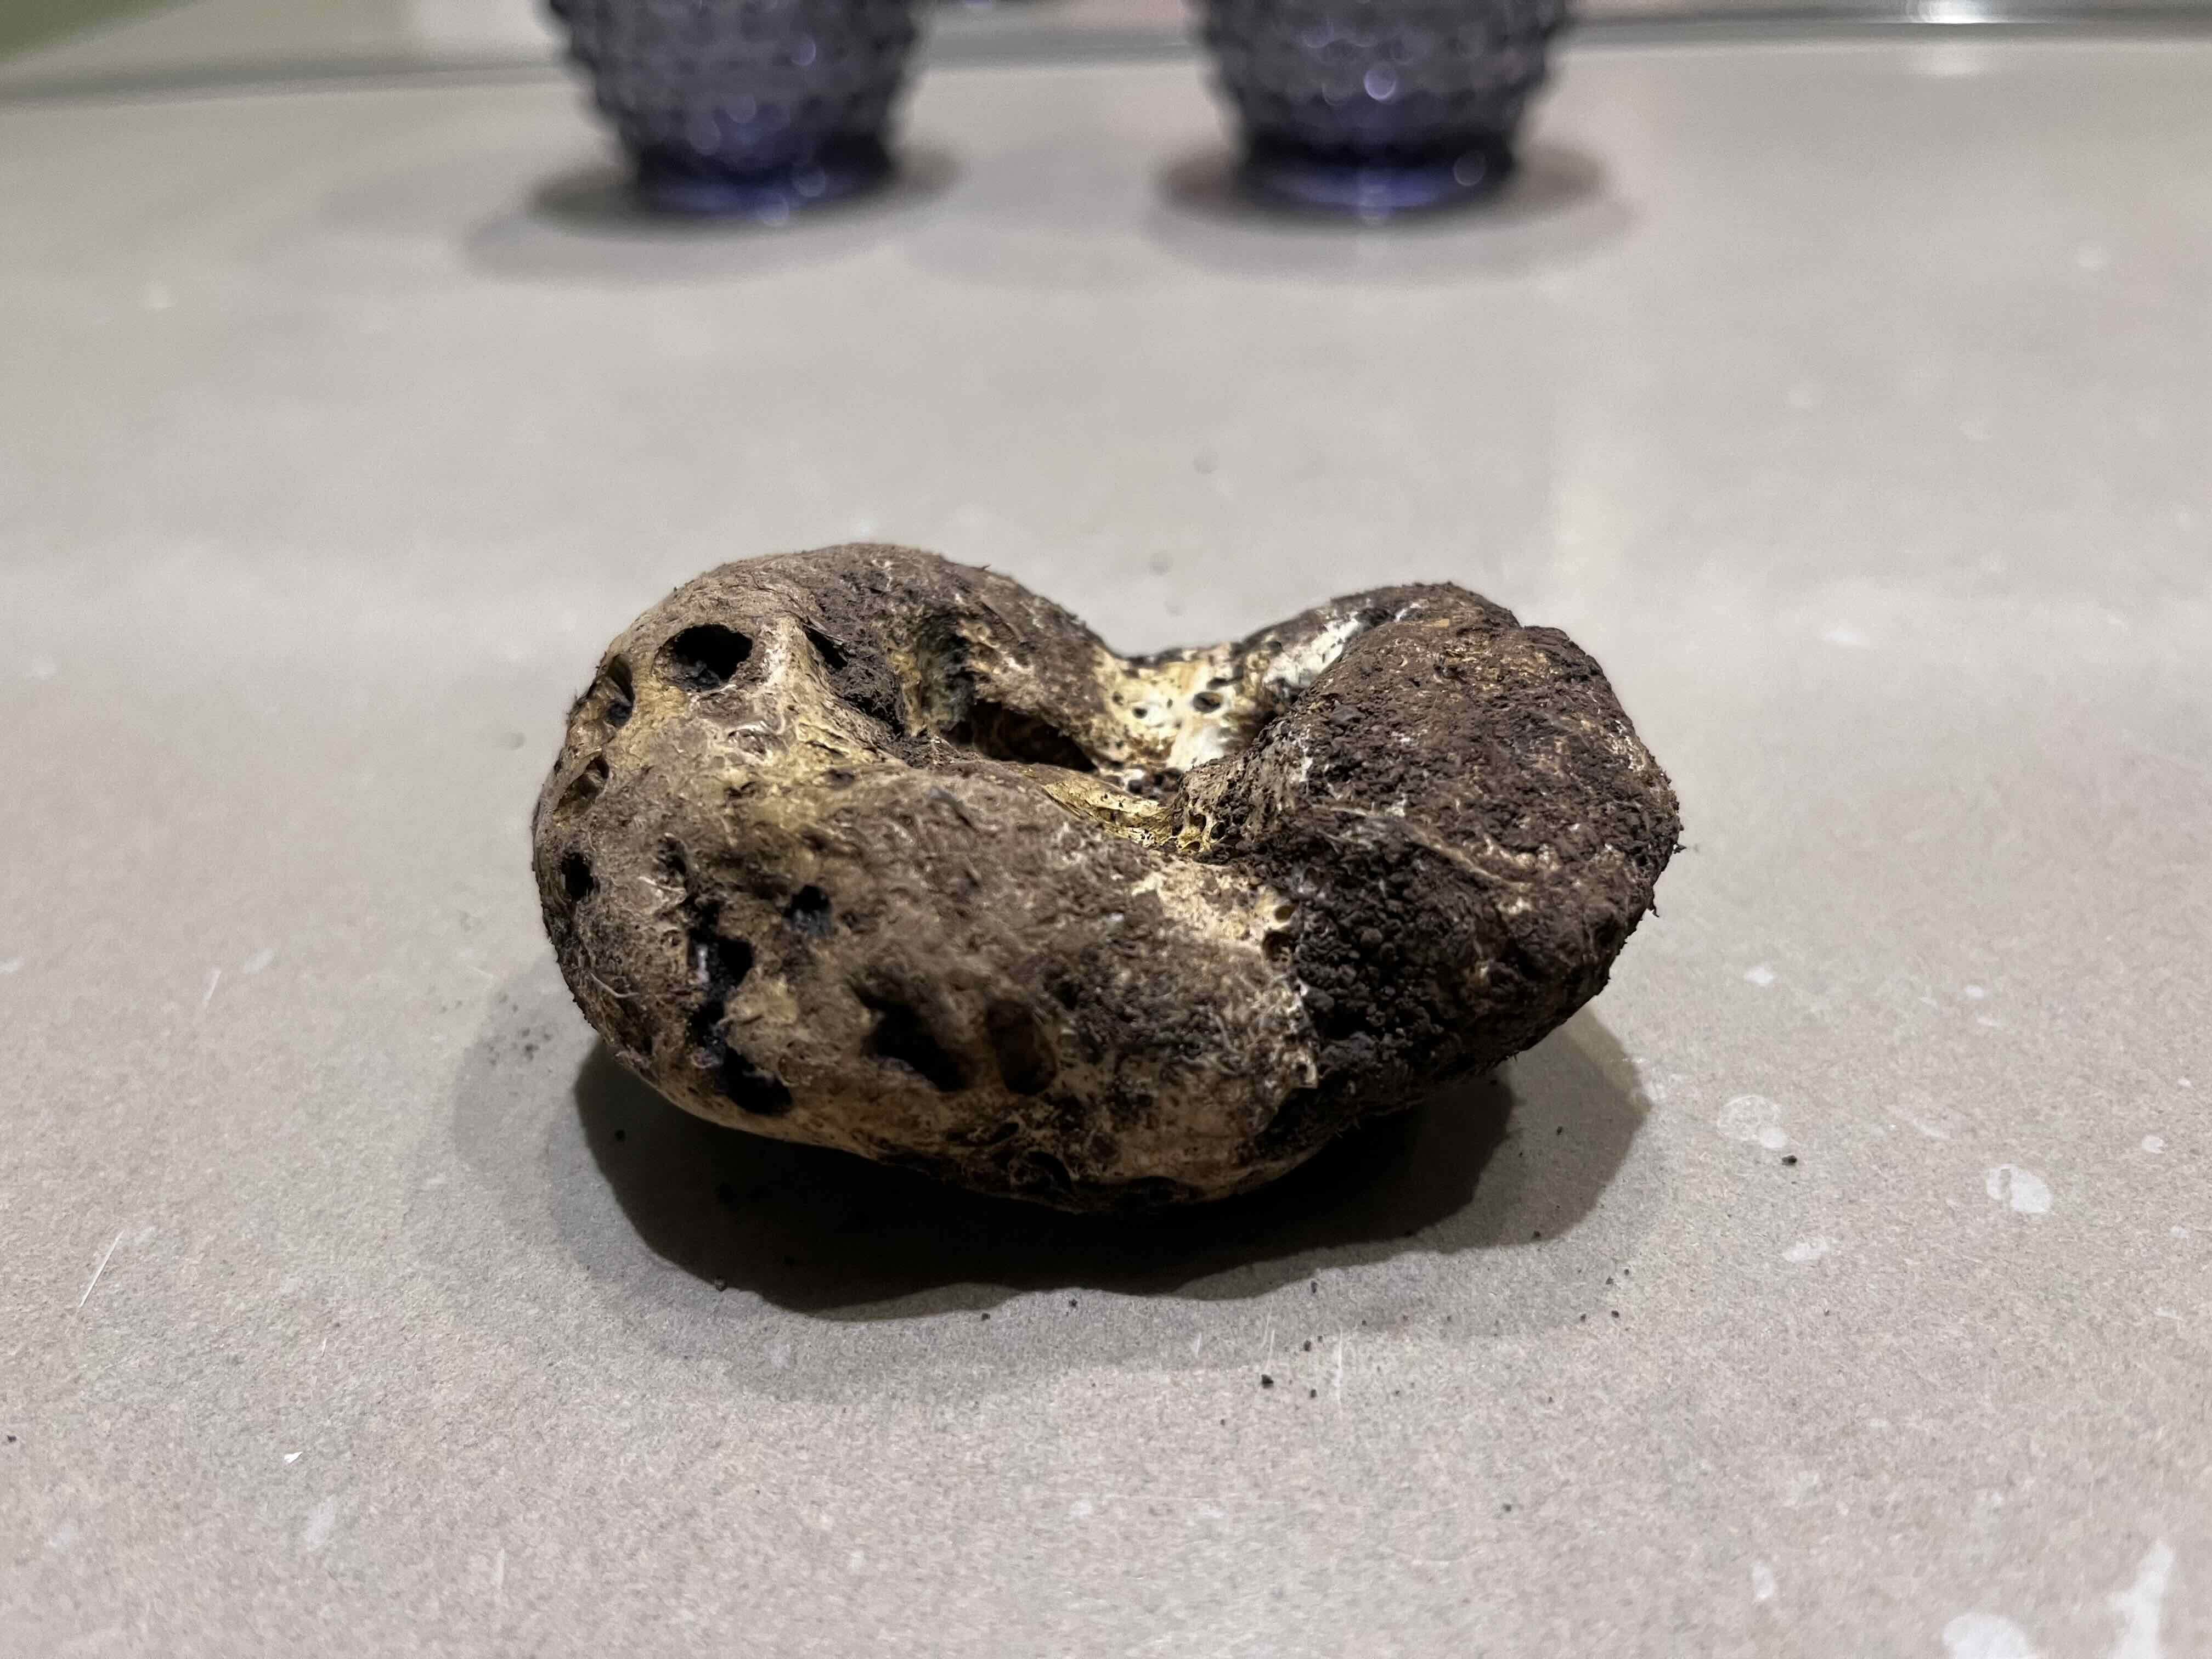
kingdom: Fungi
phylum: Basidiomycota
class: Agaricomycetes
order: Boletales
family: Sclerodermataceae
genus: Scleroderma
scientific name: Scleroderma meridionale
